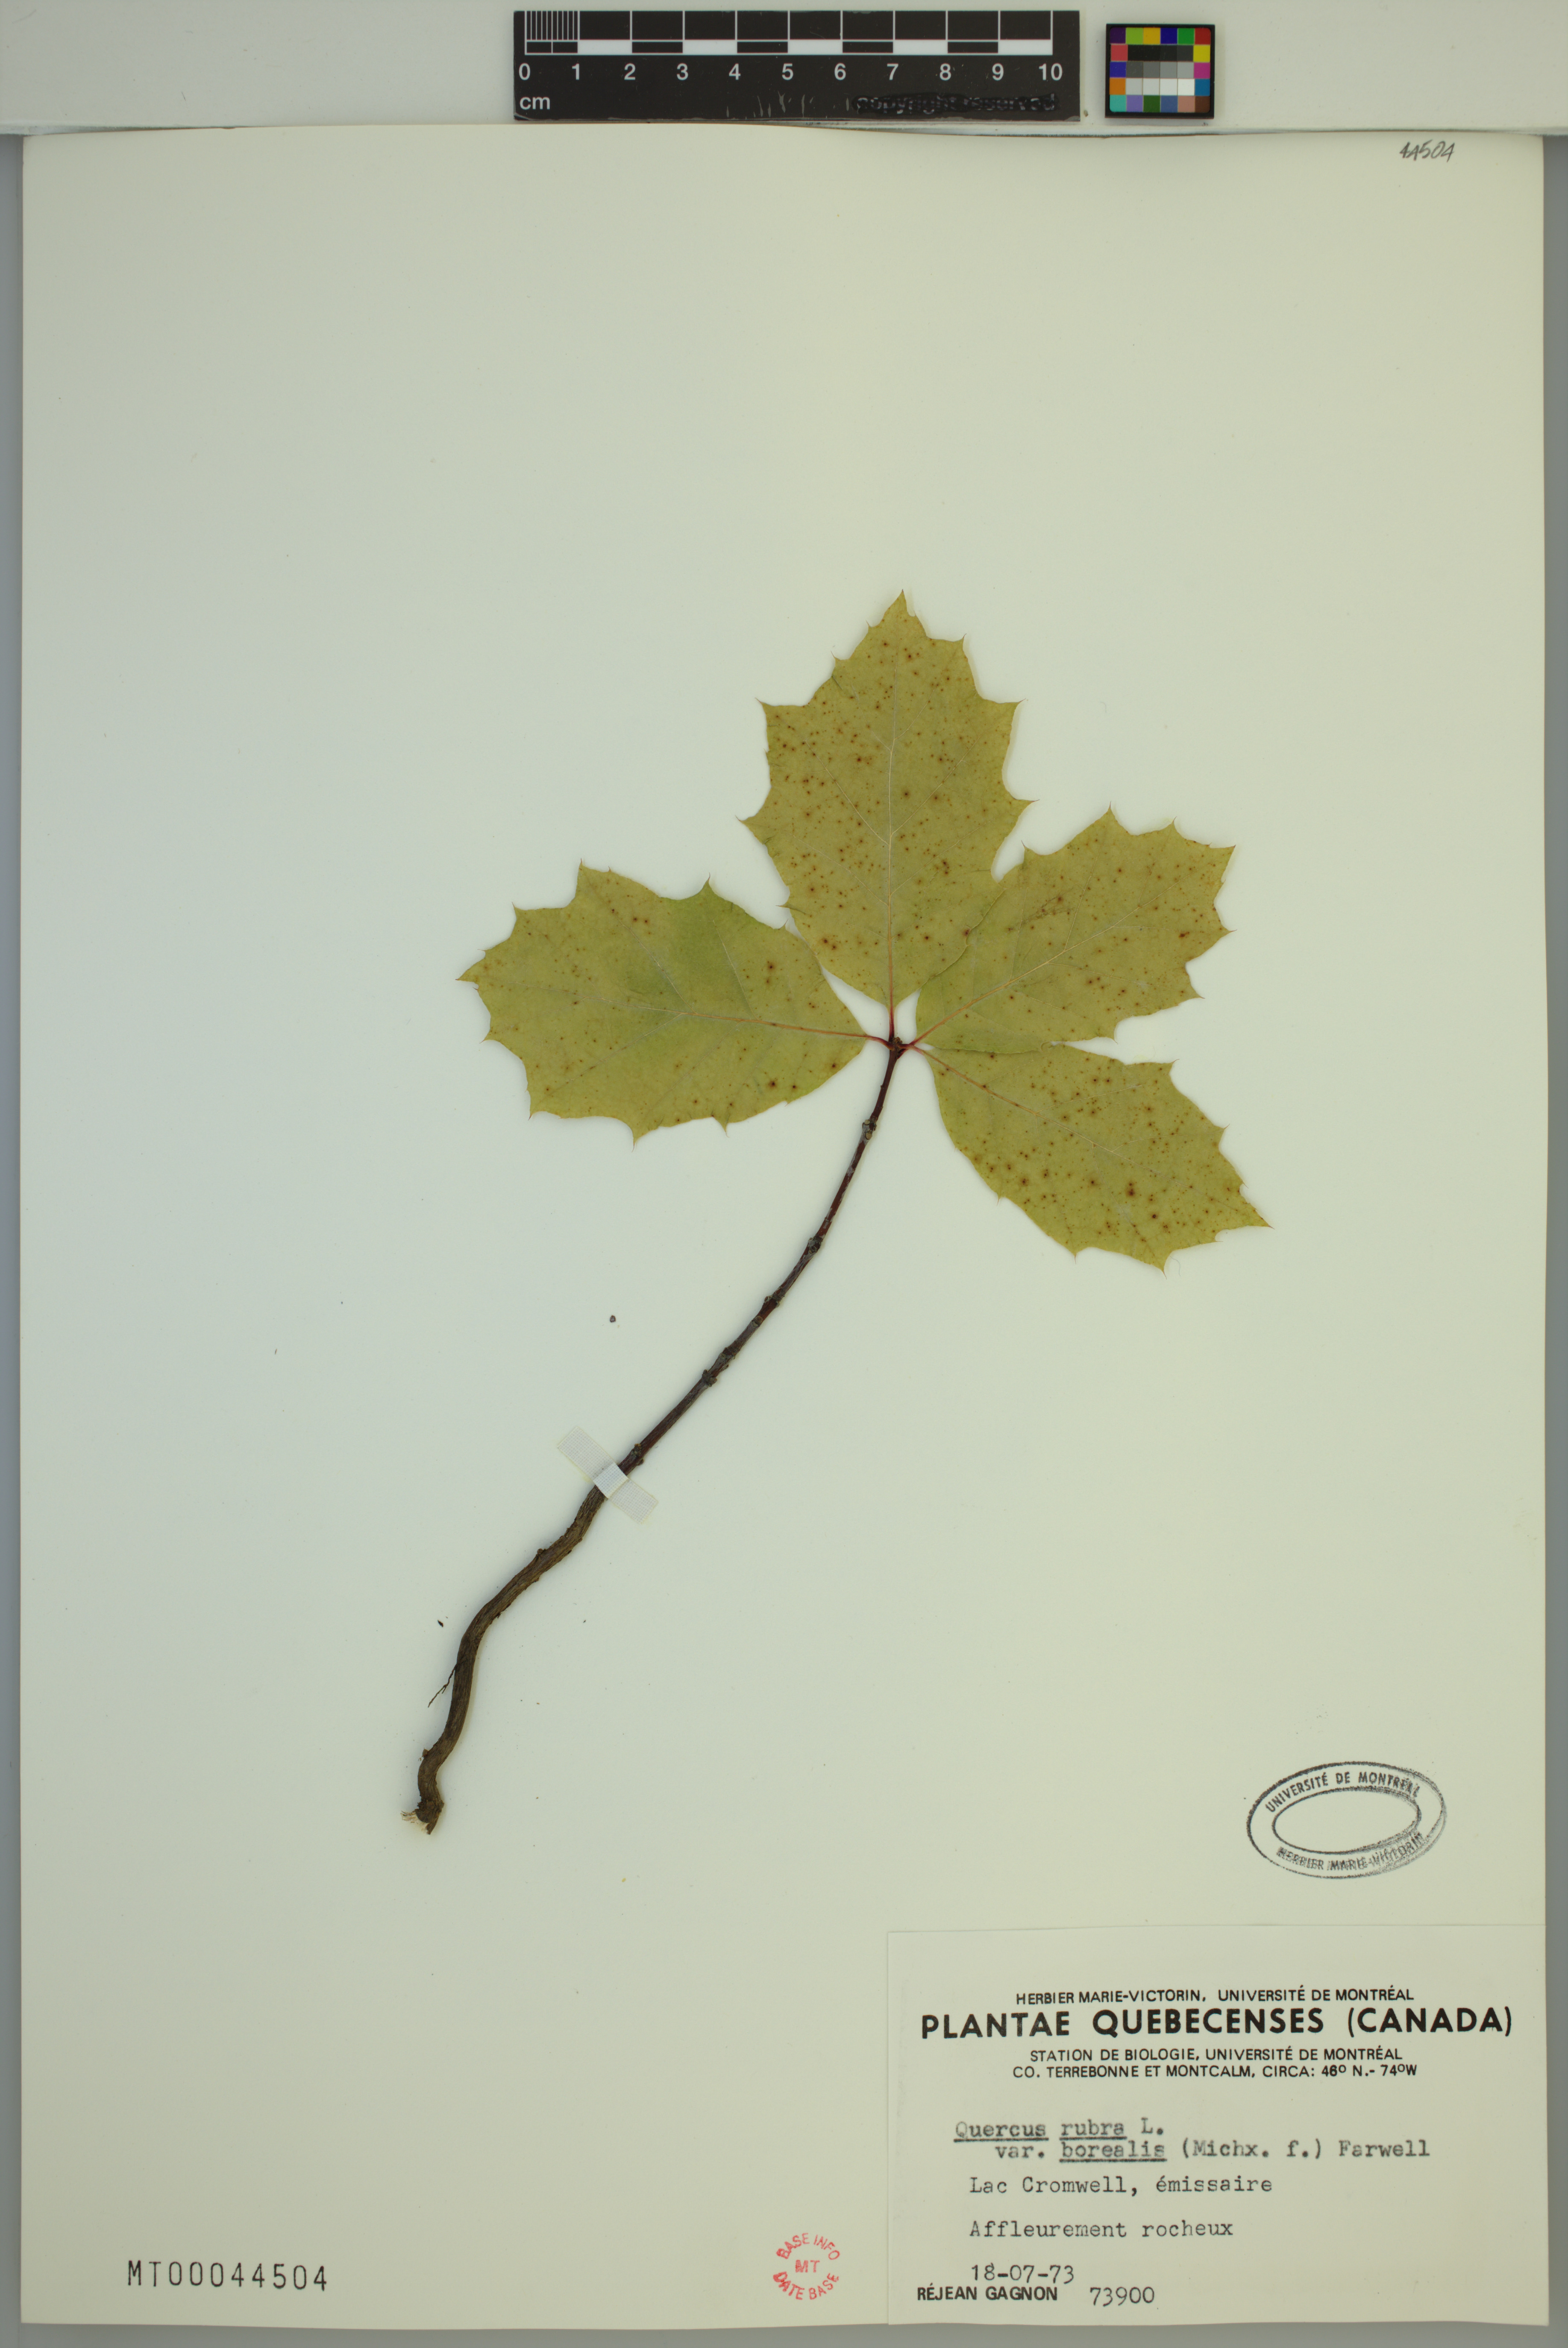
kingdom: Plantae
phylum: Tracheophyta
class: Magnoliopsida
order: Fagales
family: Fagaceae
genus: Quercus
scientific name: Quercus rubra
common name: Red oak
